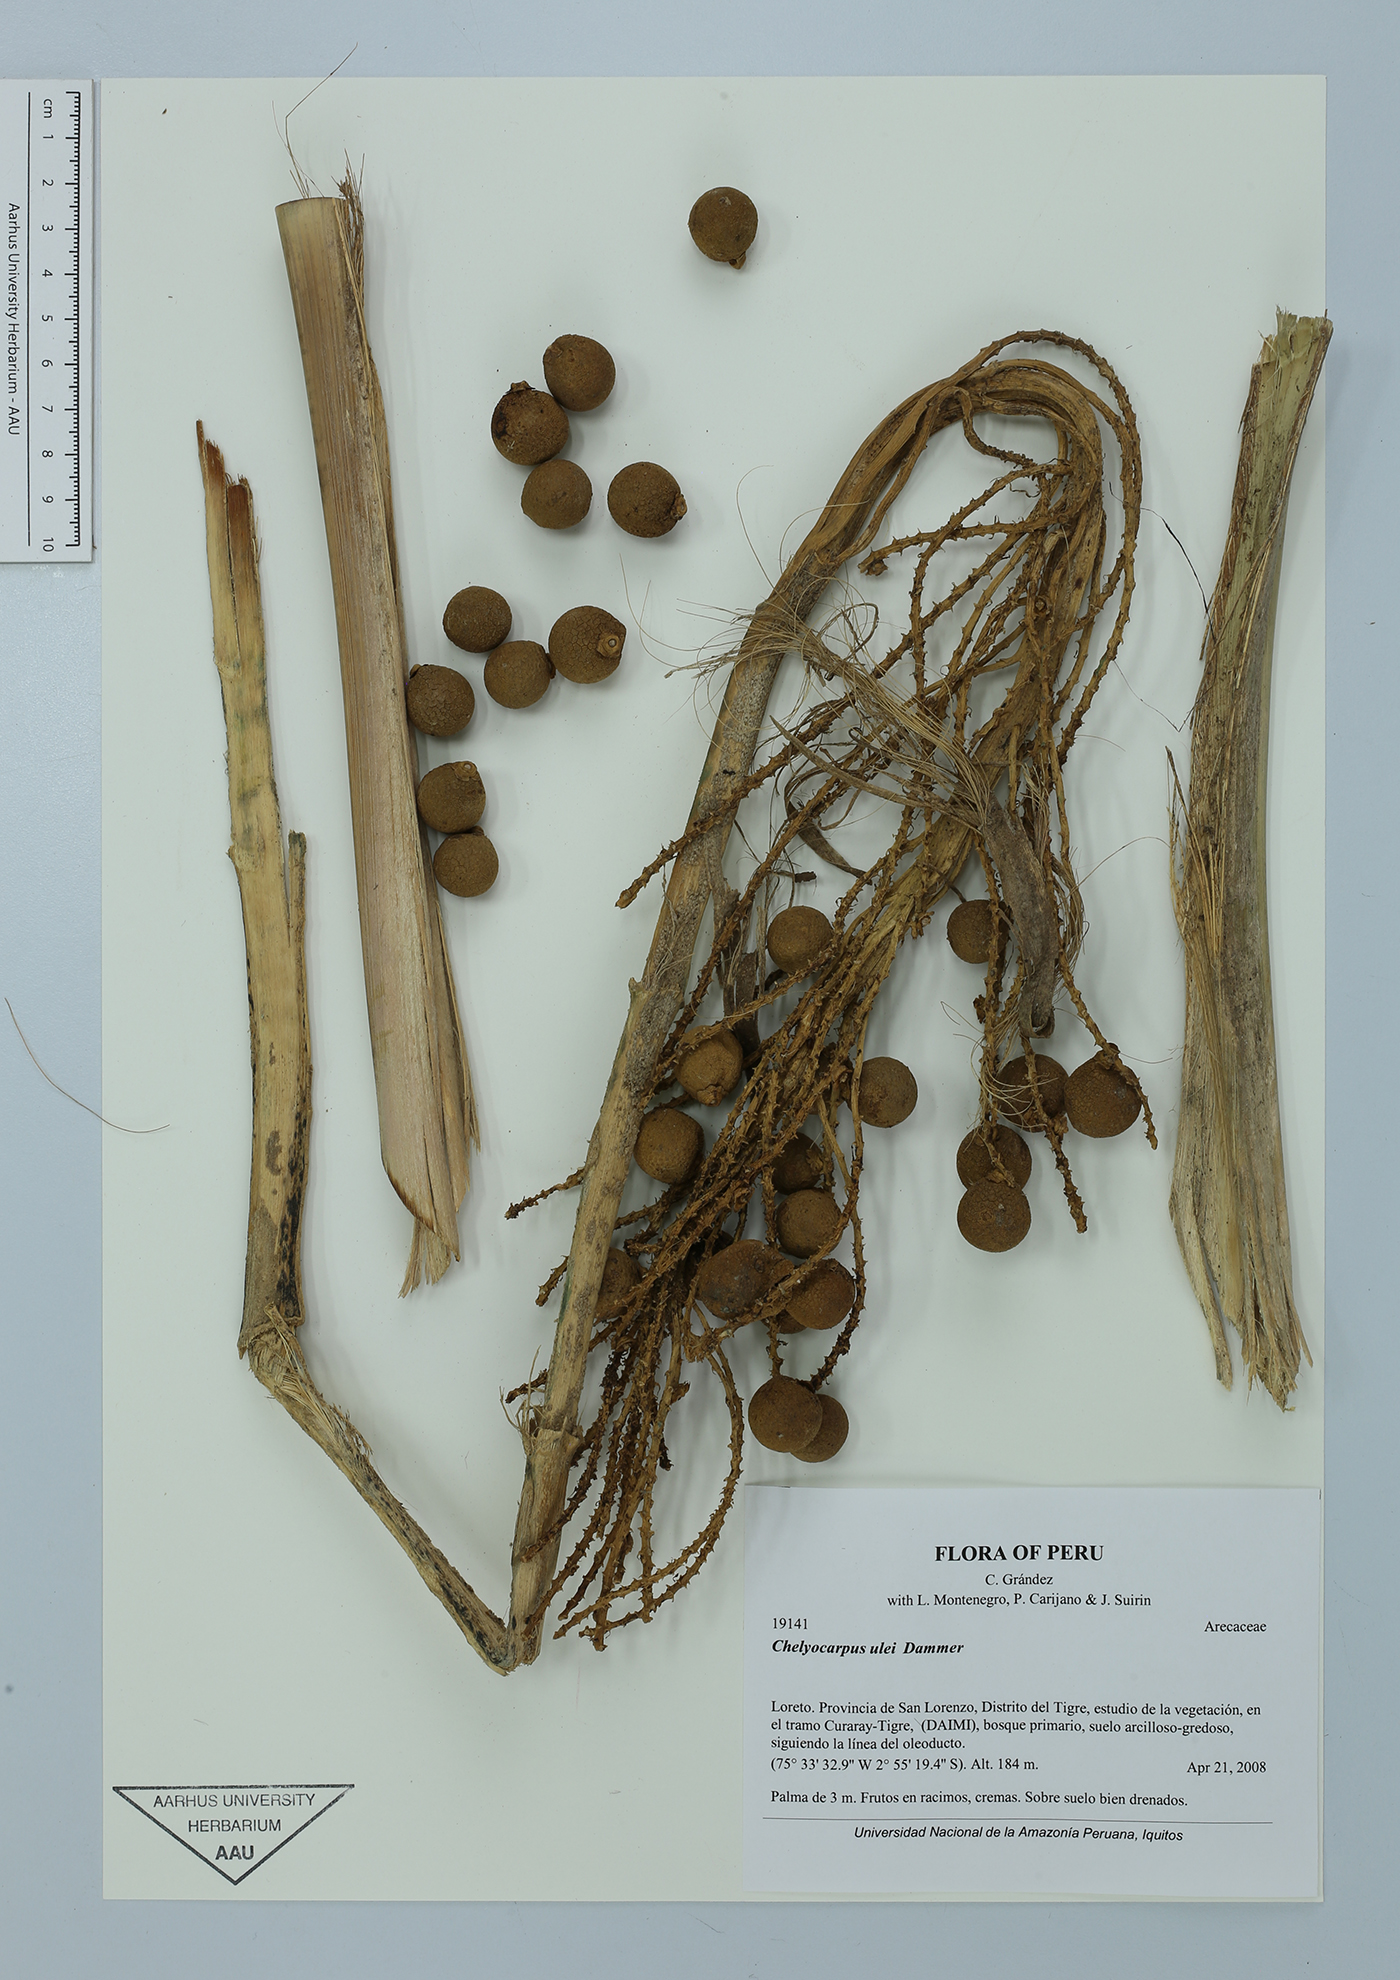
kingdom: Plantae
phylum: Tracheophyta
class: Liliopsida
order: Arecales
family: Arecaceae
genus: Chelyocarpus
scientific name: Chelyocarpus ulei
